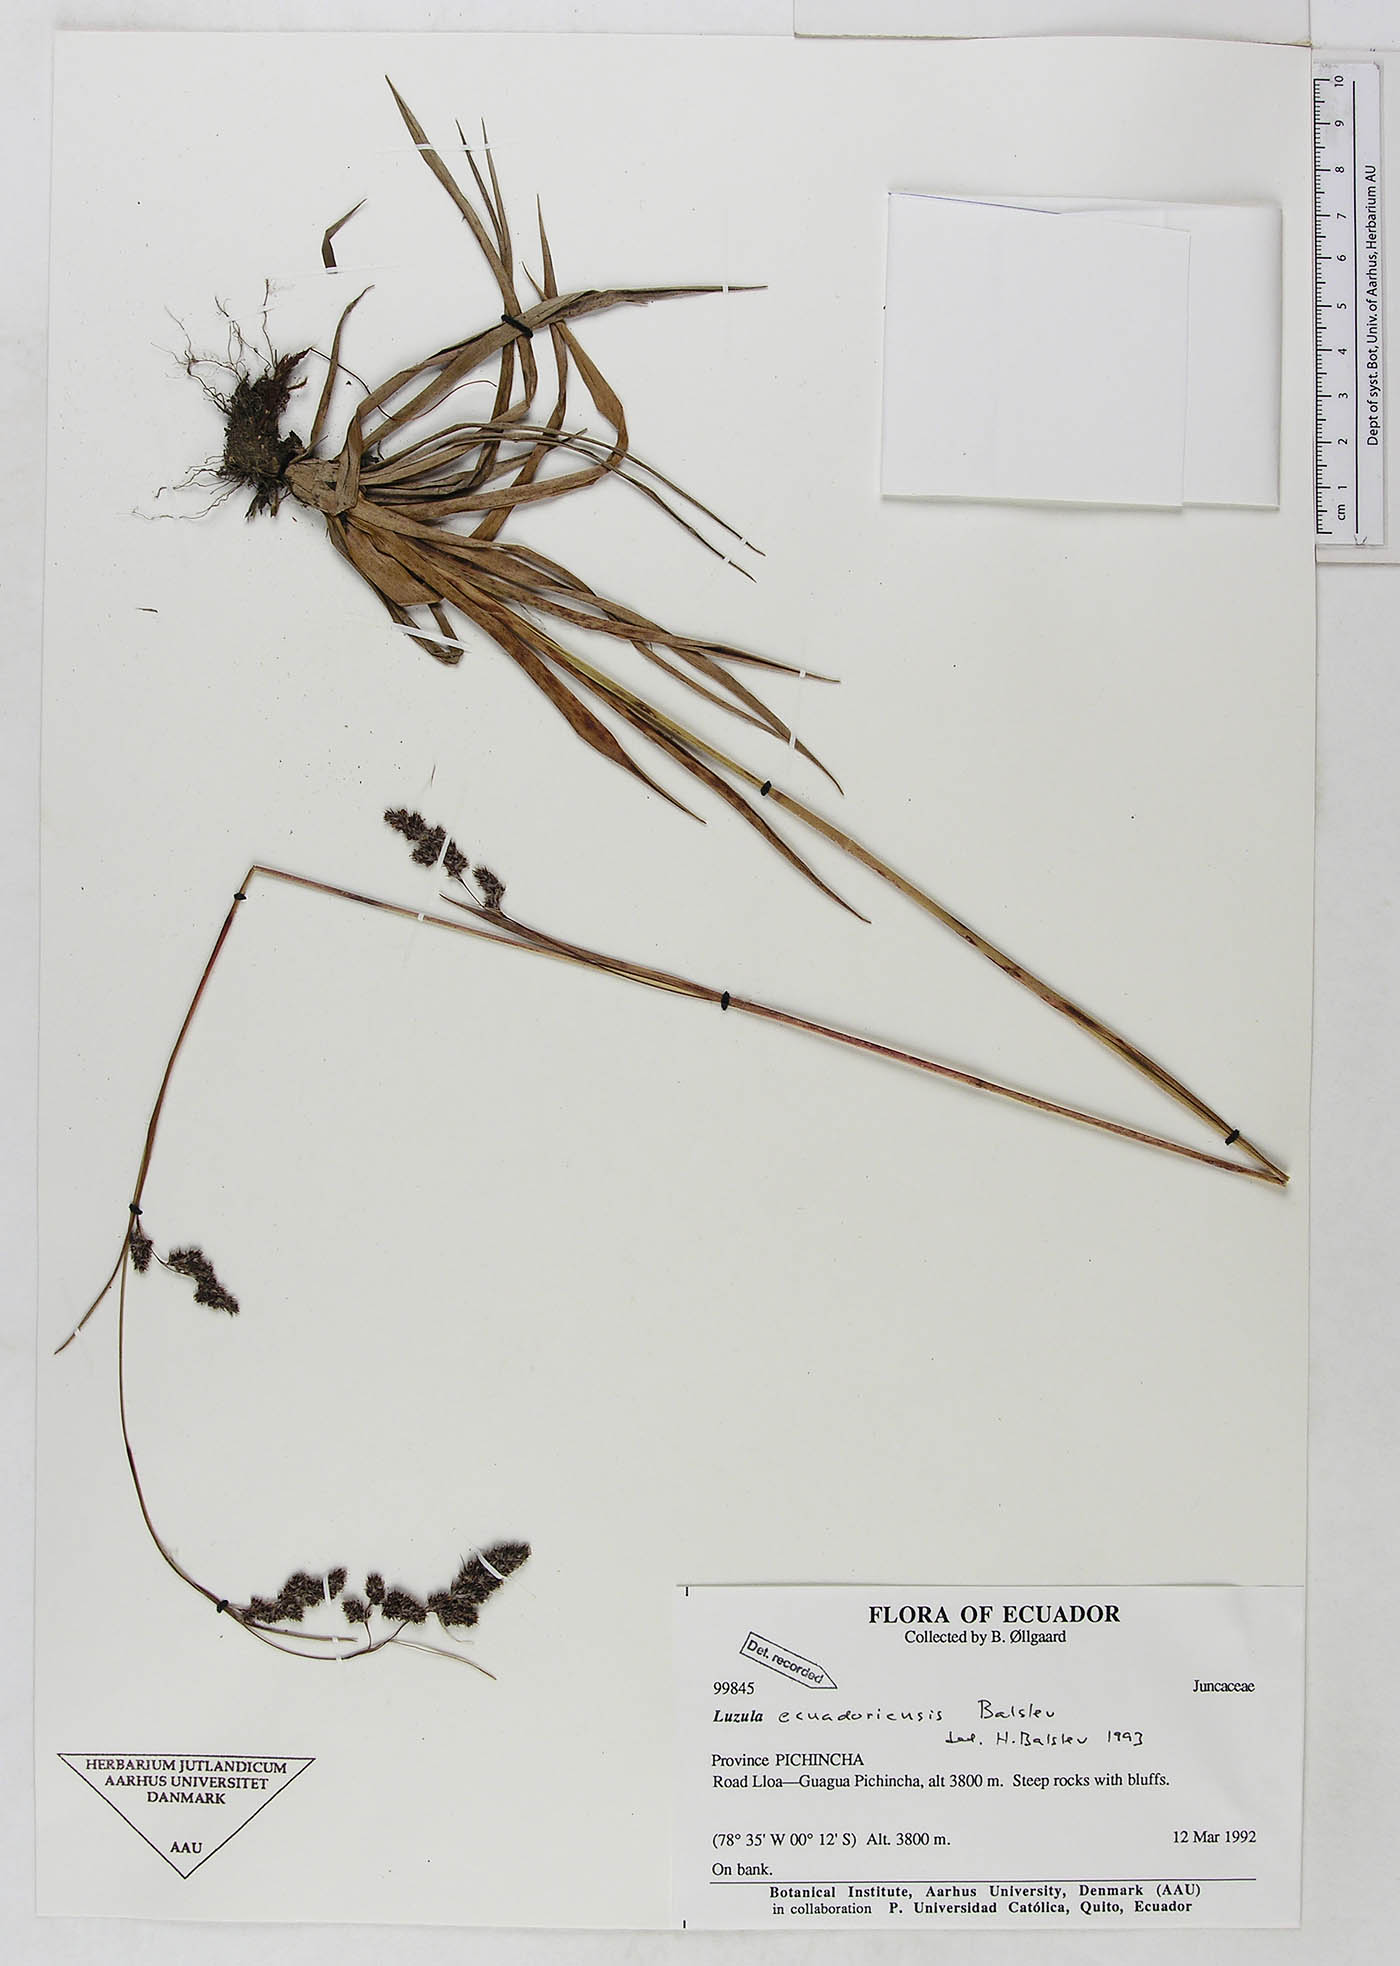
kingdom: Plantae
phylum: Tracheophyta
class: Liliopsida
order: Poales
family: Juncaceae
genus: Luzula
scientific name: Luzula ecuadoriensis
